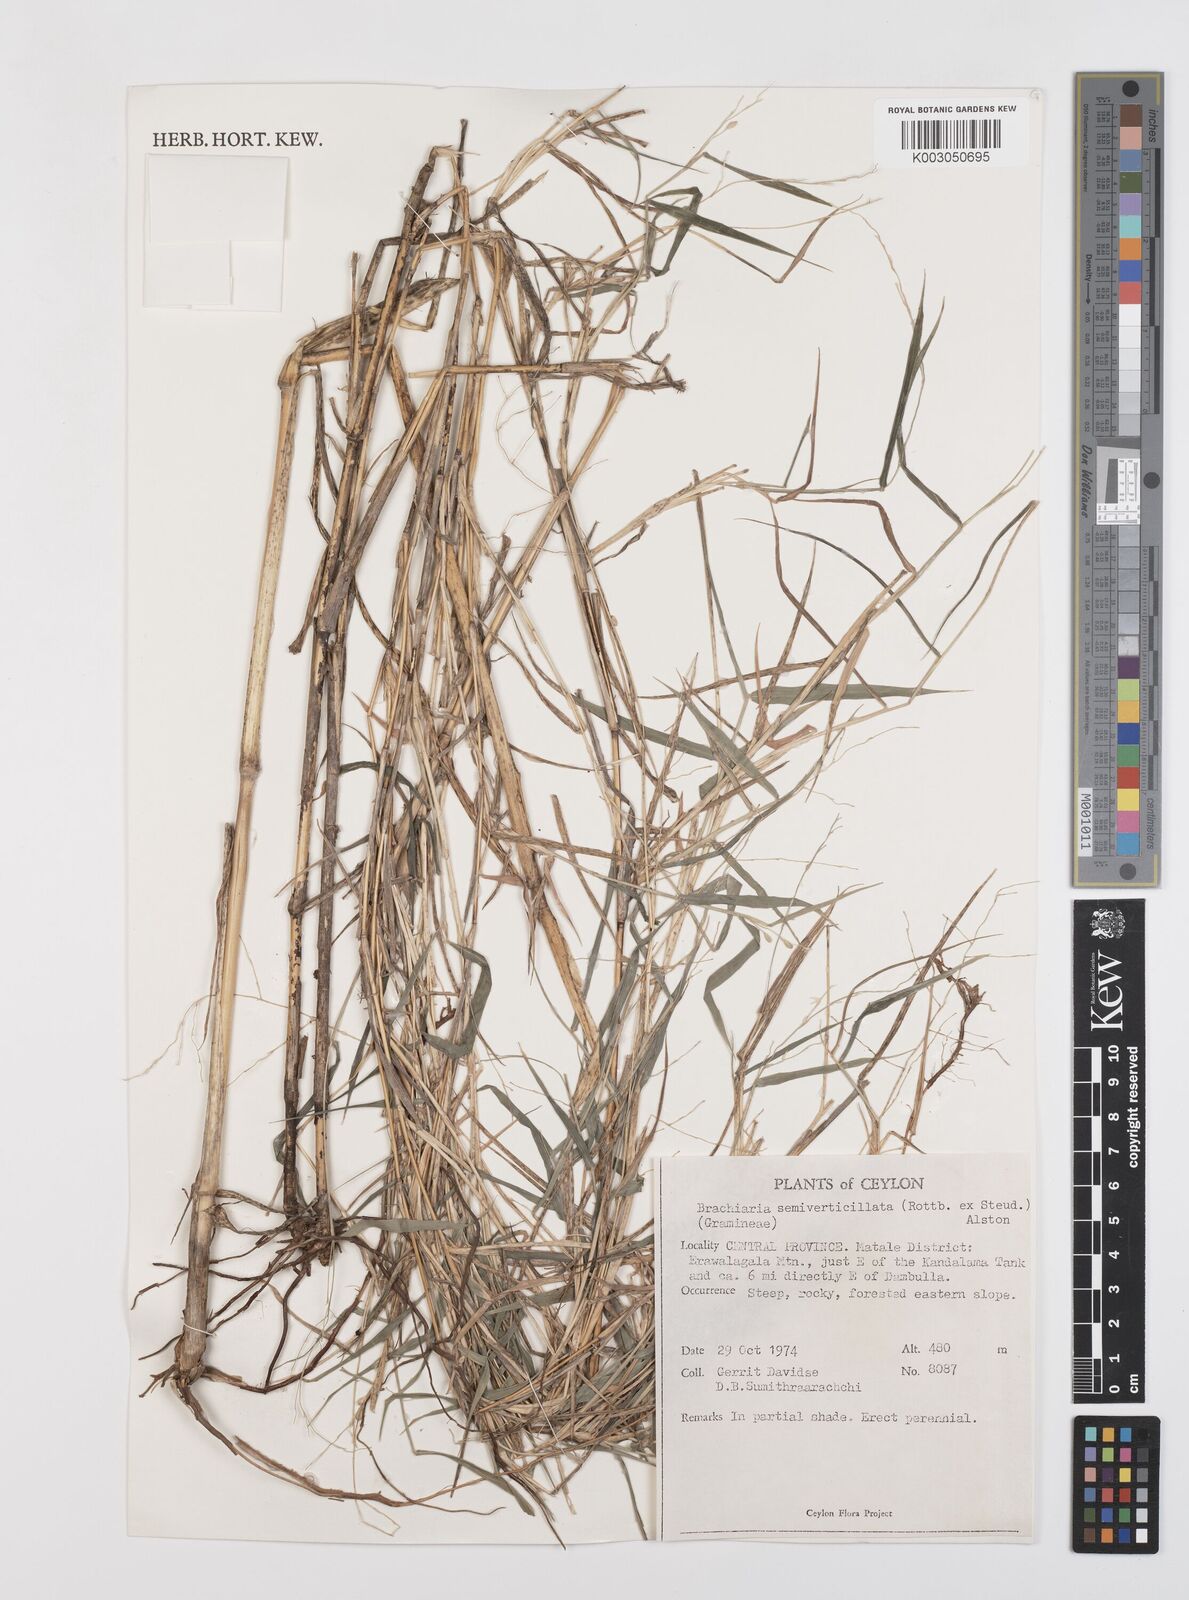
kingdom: Plantae
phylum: Tracheophyta
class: Liliopsida
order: Poales
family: Poaceae
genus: Urochloa
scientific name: Urochloa semiundulata
